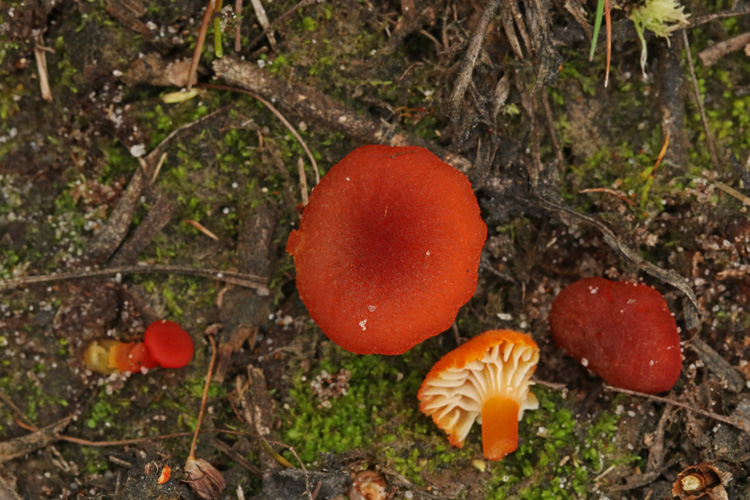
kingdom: Fungi
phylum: Basidiomycota
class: Agaricomycetes
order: Agaricales
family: Hygrophoraceae
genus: Hygrocybe
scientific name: Hygrocybe coccineocrenata
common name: tørvemos-vokshat
